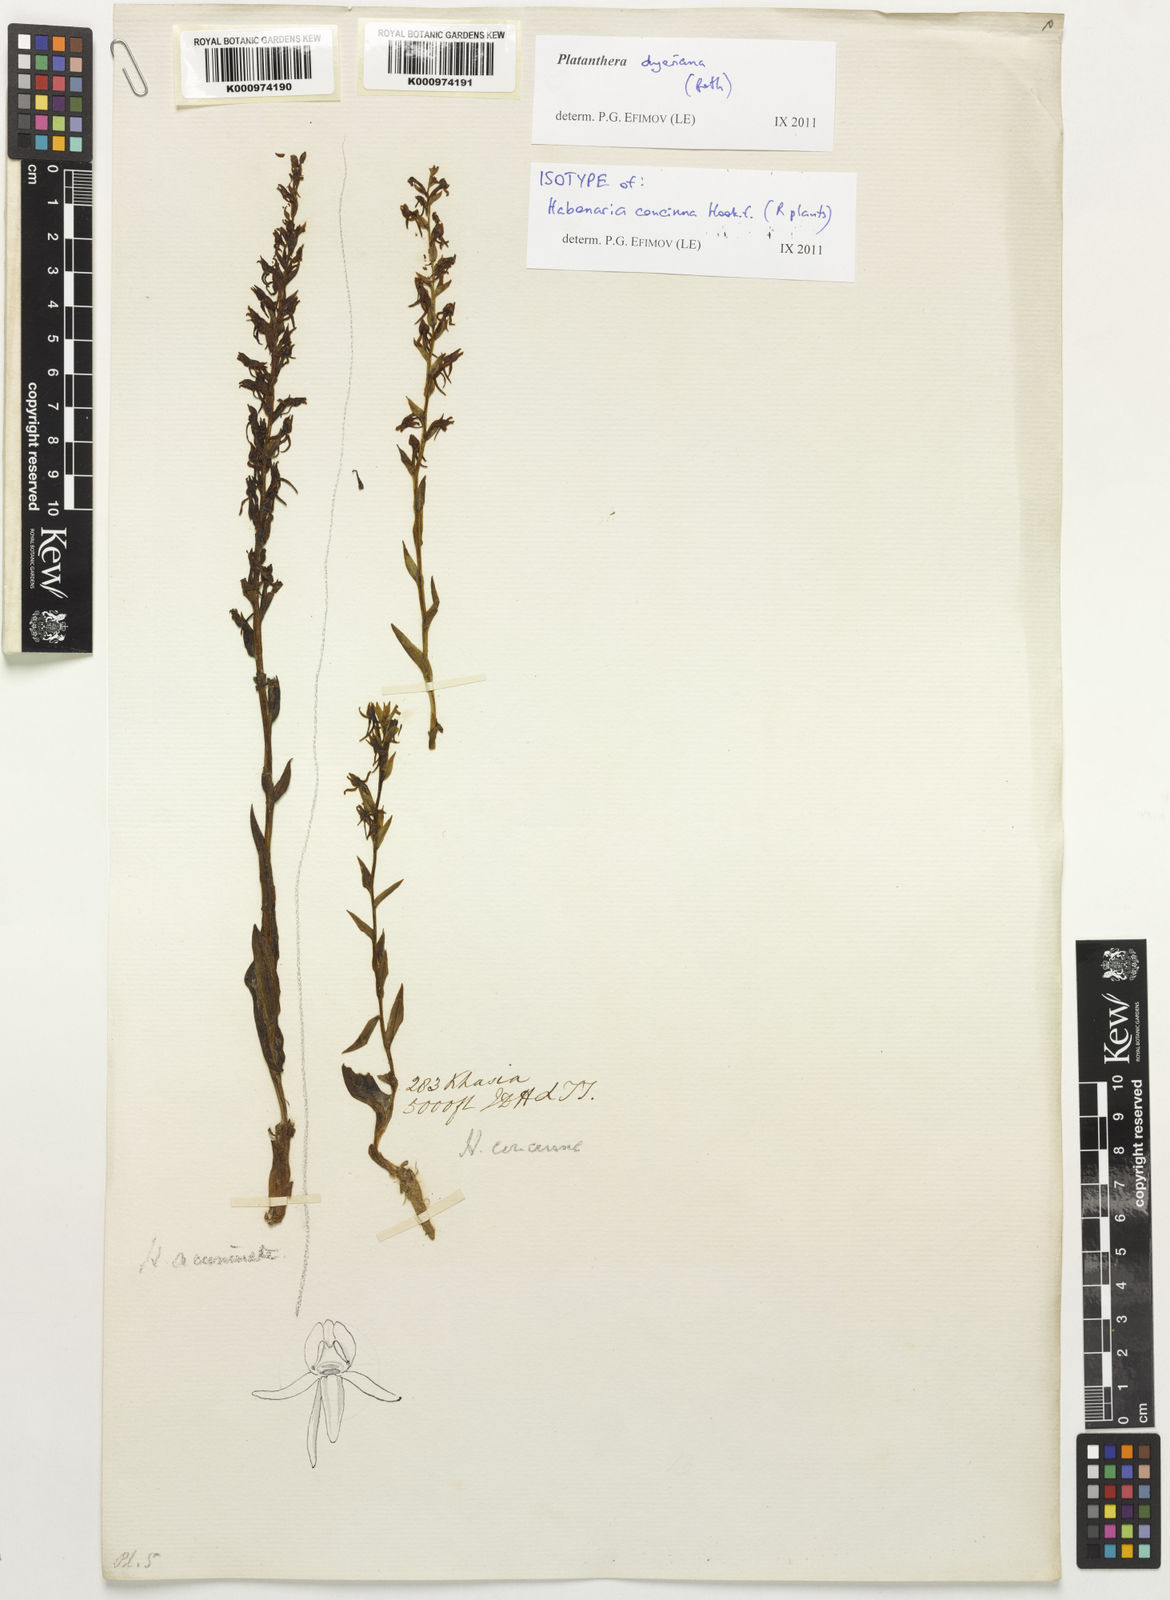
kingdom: Plantae
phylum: Tracheophyta
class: Liliopsida
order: Asparagales
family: Orchidaceae
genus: Platanthera
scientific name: Platanthera concinna
